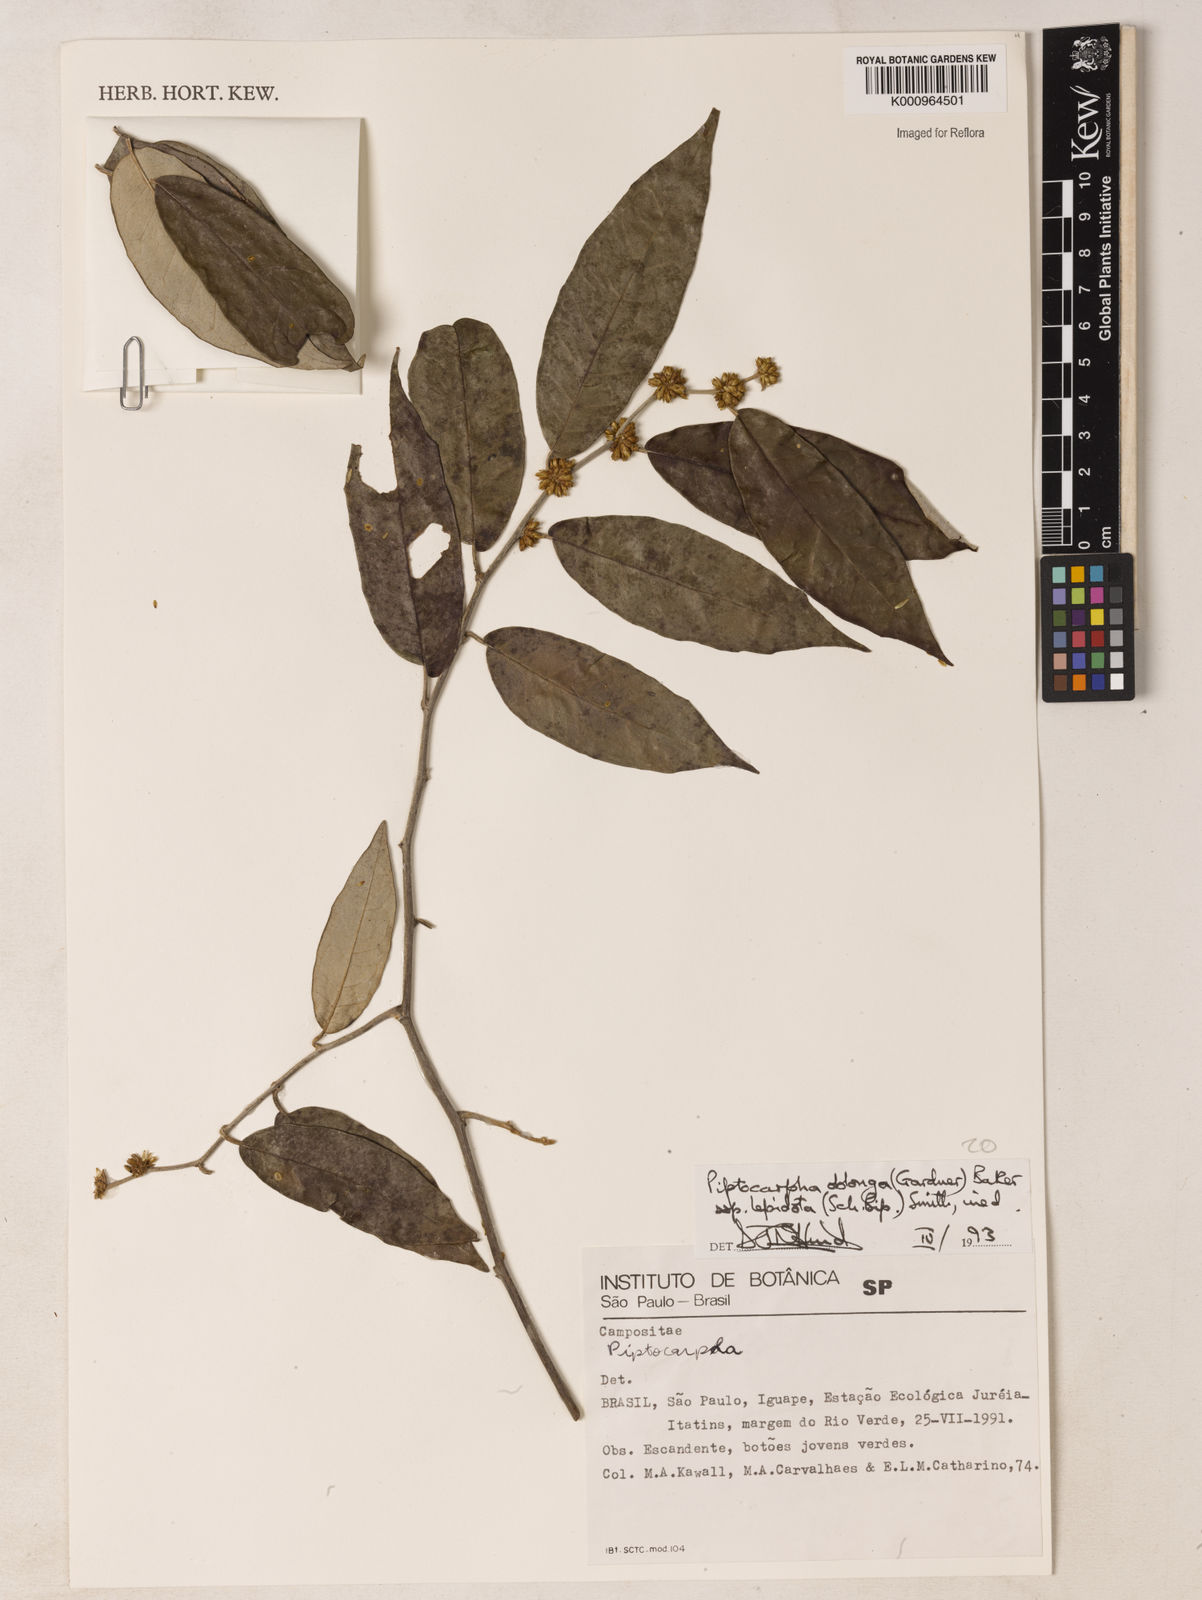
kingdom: Plantae
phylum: Tracheophyta
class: Magnoliopsida
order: Asterales
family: Asteraceae
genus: Piptocarpha
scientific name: Piptocarpha oblonga
